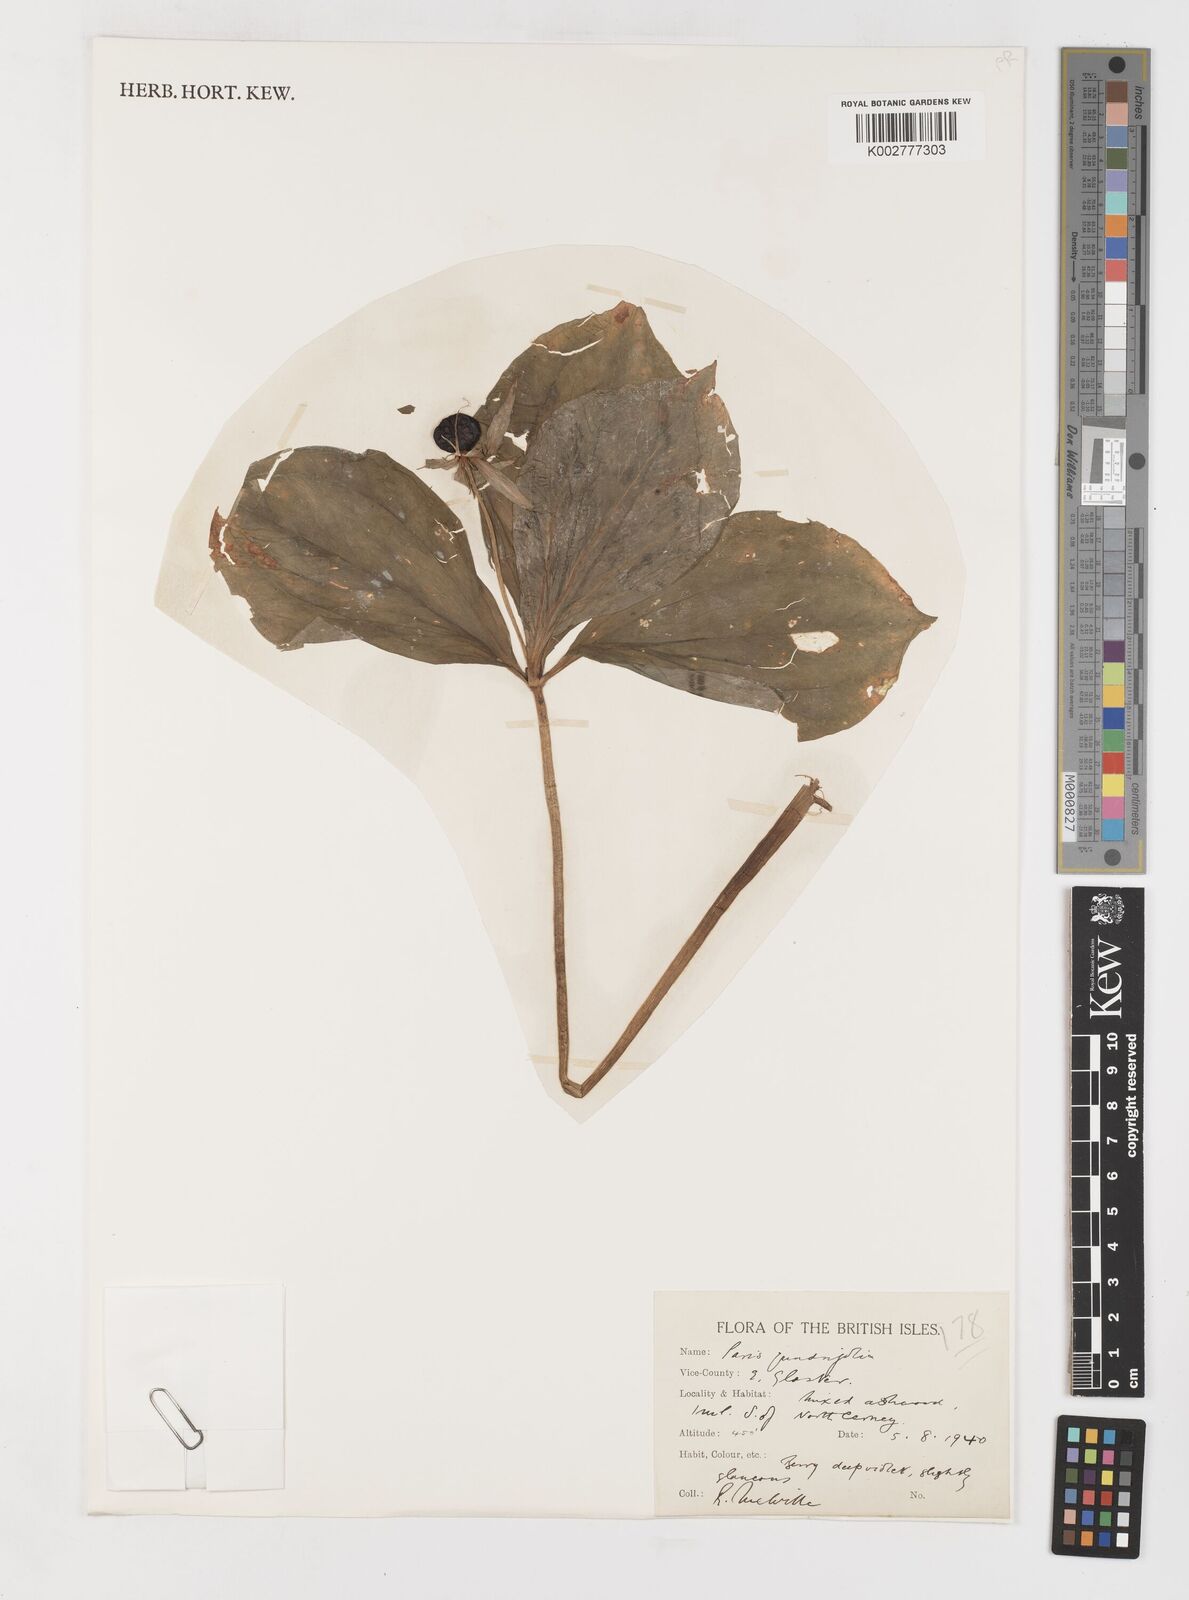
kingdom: Plantae
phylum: Tracheophyta
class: Liliopsida
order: Liliales
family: Melanthiaceae
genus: Paris
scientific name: Paris quadrifolia
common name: Herb-paris
